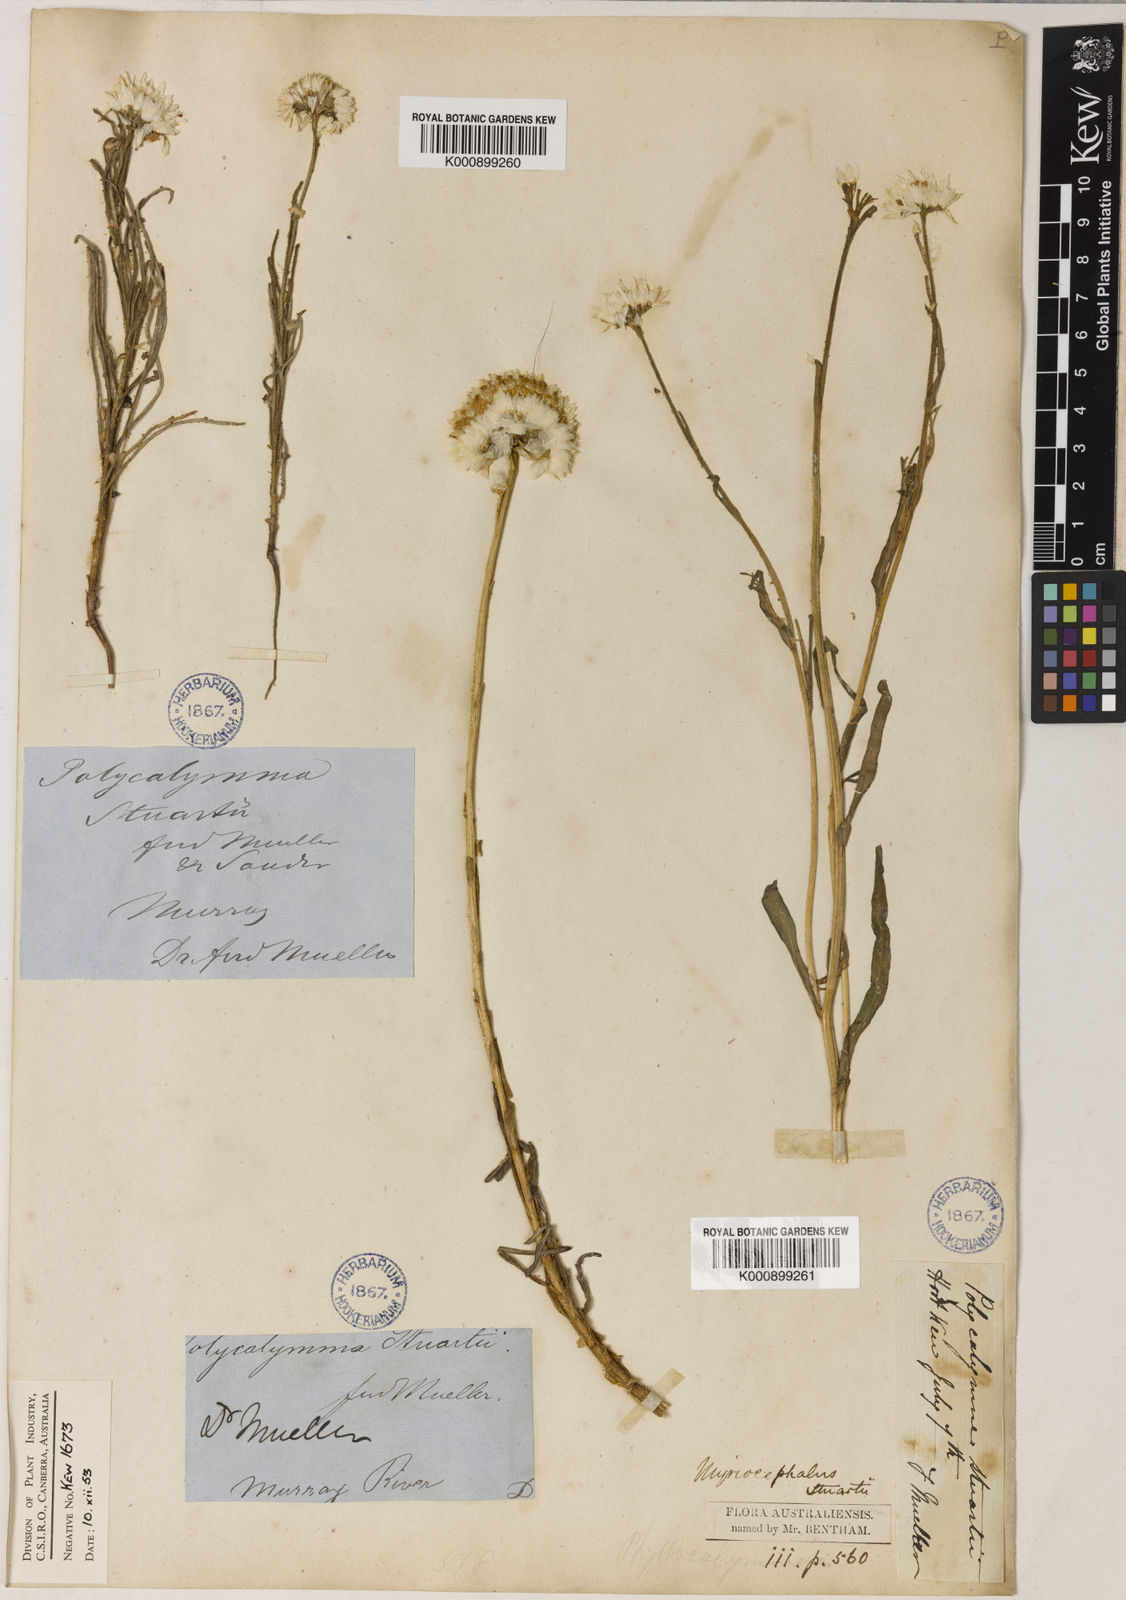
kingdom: Plantae
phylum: Tracheophyta
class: Magnoliopsida
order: Asterales
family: Asteraceae
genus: Polycalymma
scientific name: Polycalymma stuartii
